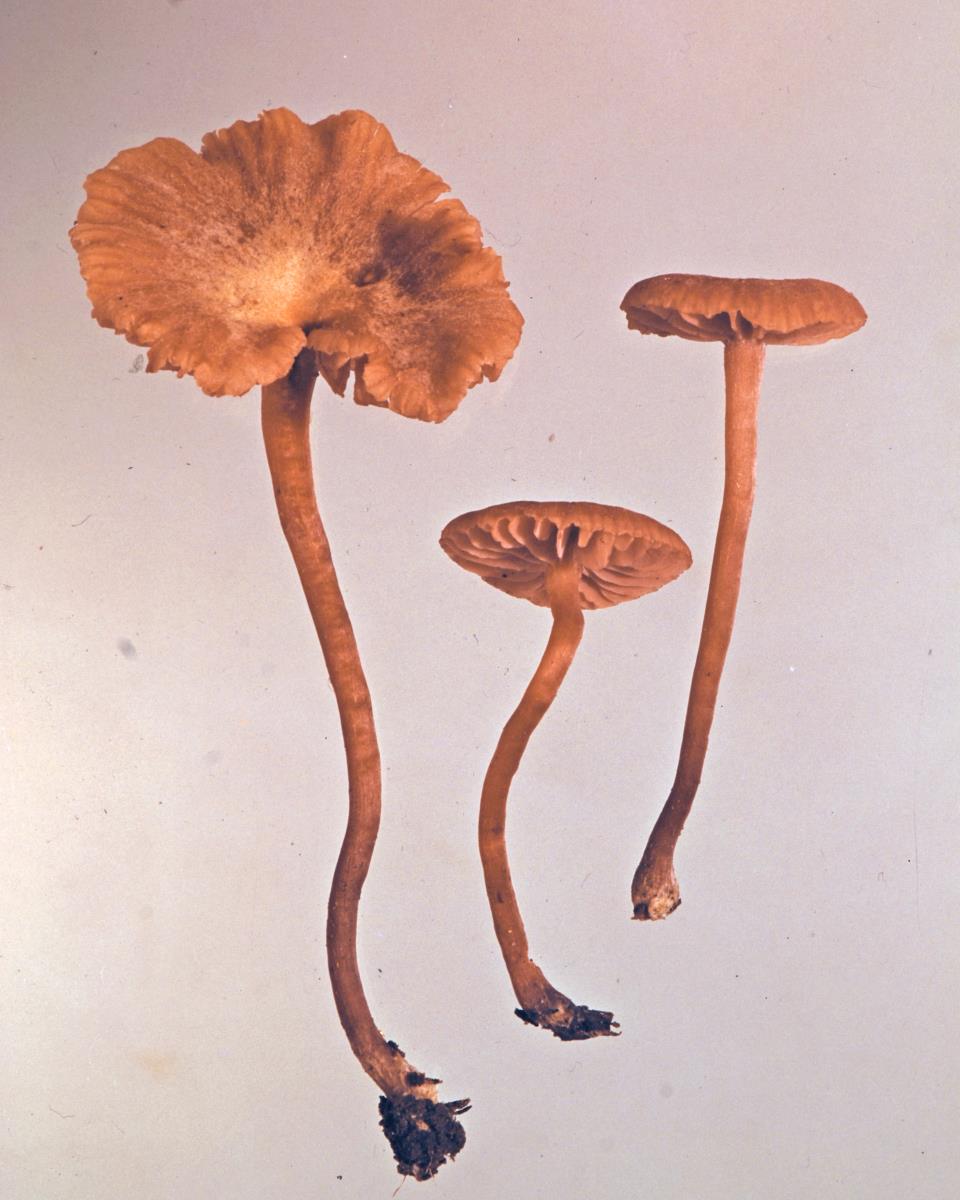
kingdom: Fungi
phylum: Basidiomycota
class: Agaricomycetes
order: Agaricales
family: Hydnangiaceae
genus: Laccaria
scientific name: Laccaria glabripes
